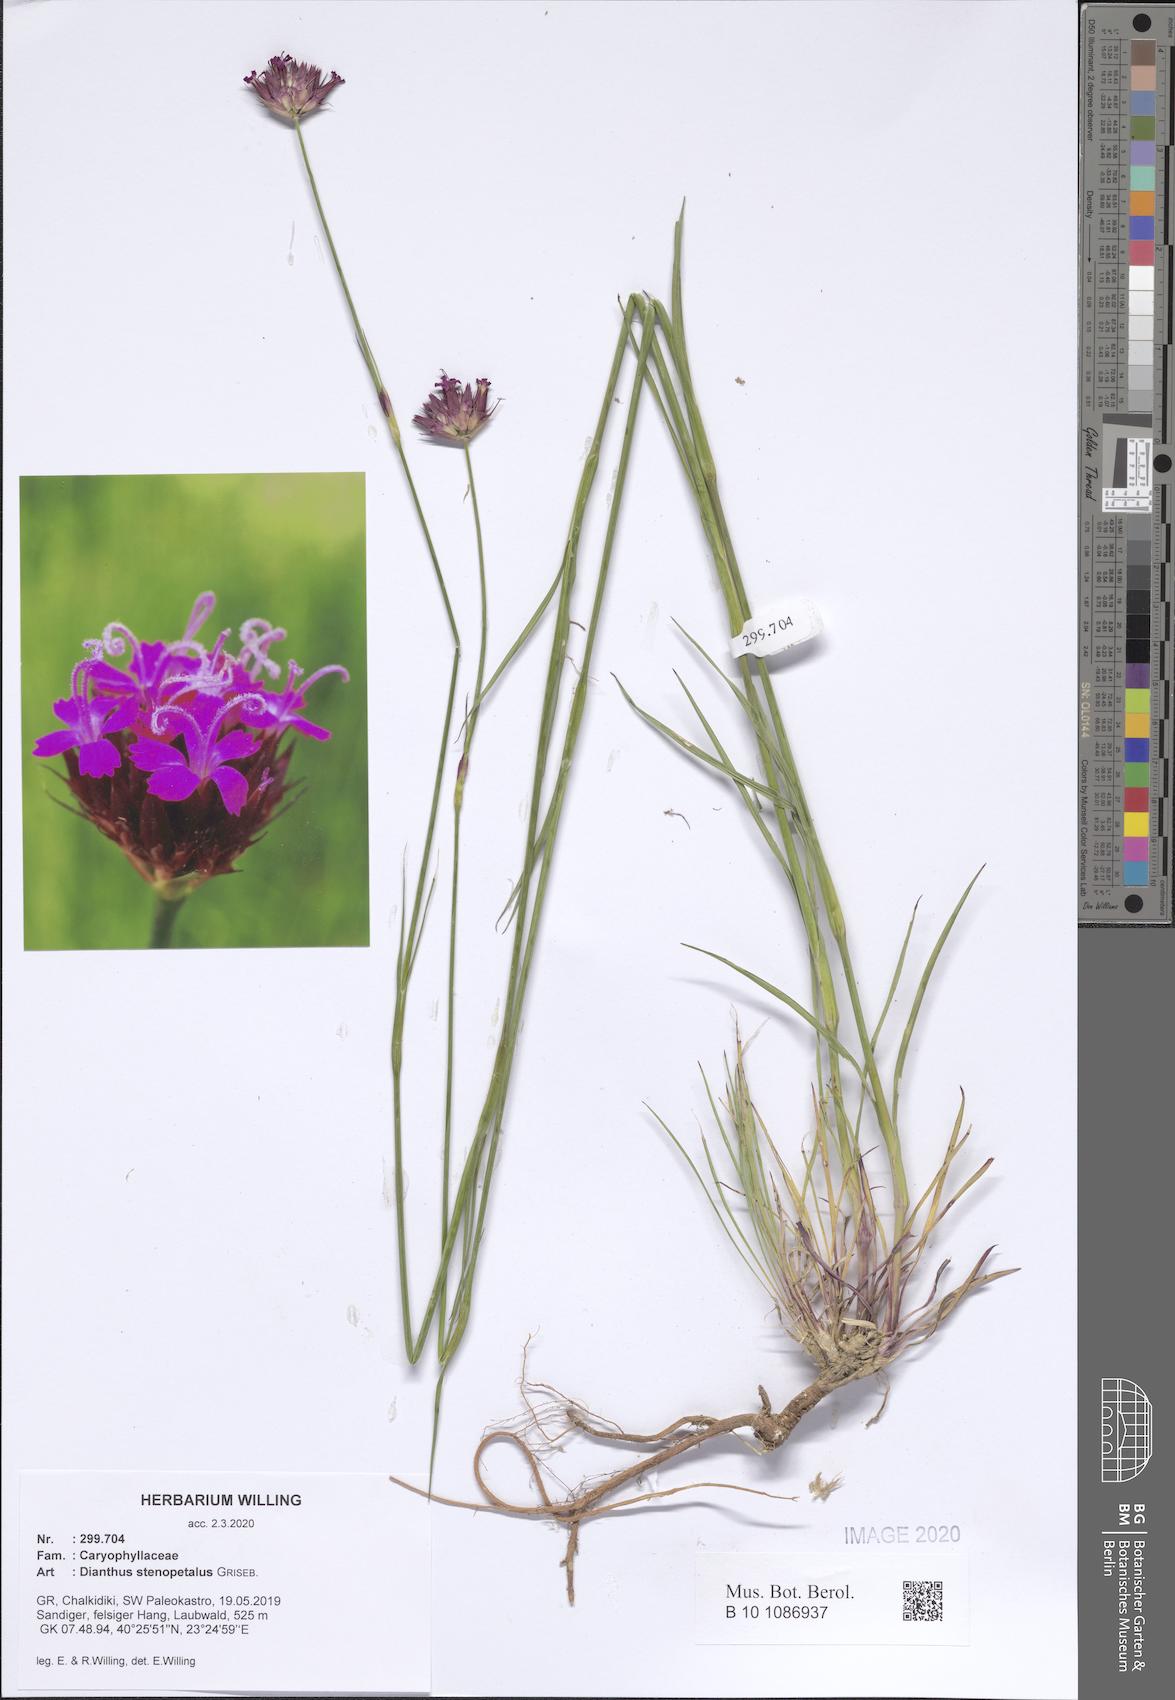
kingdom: Plantae
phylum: Tracheophyta
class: Magnoliopsida
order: Caryophyllales
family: Caryophyllaceae
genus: Dianthus
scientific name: Dianthus stenopetalus
